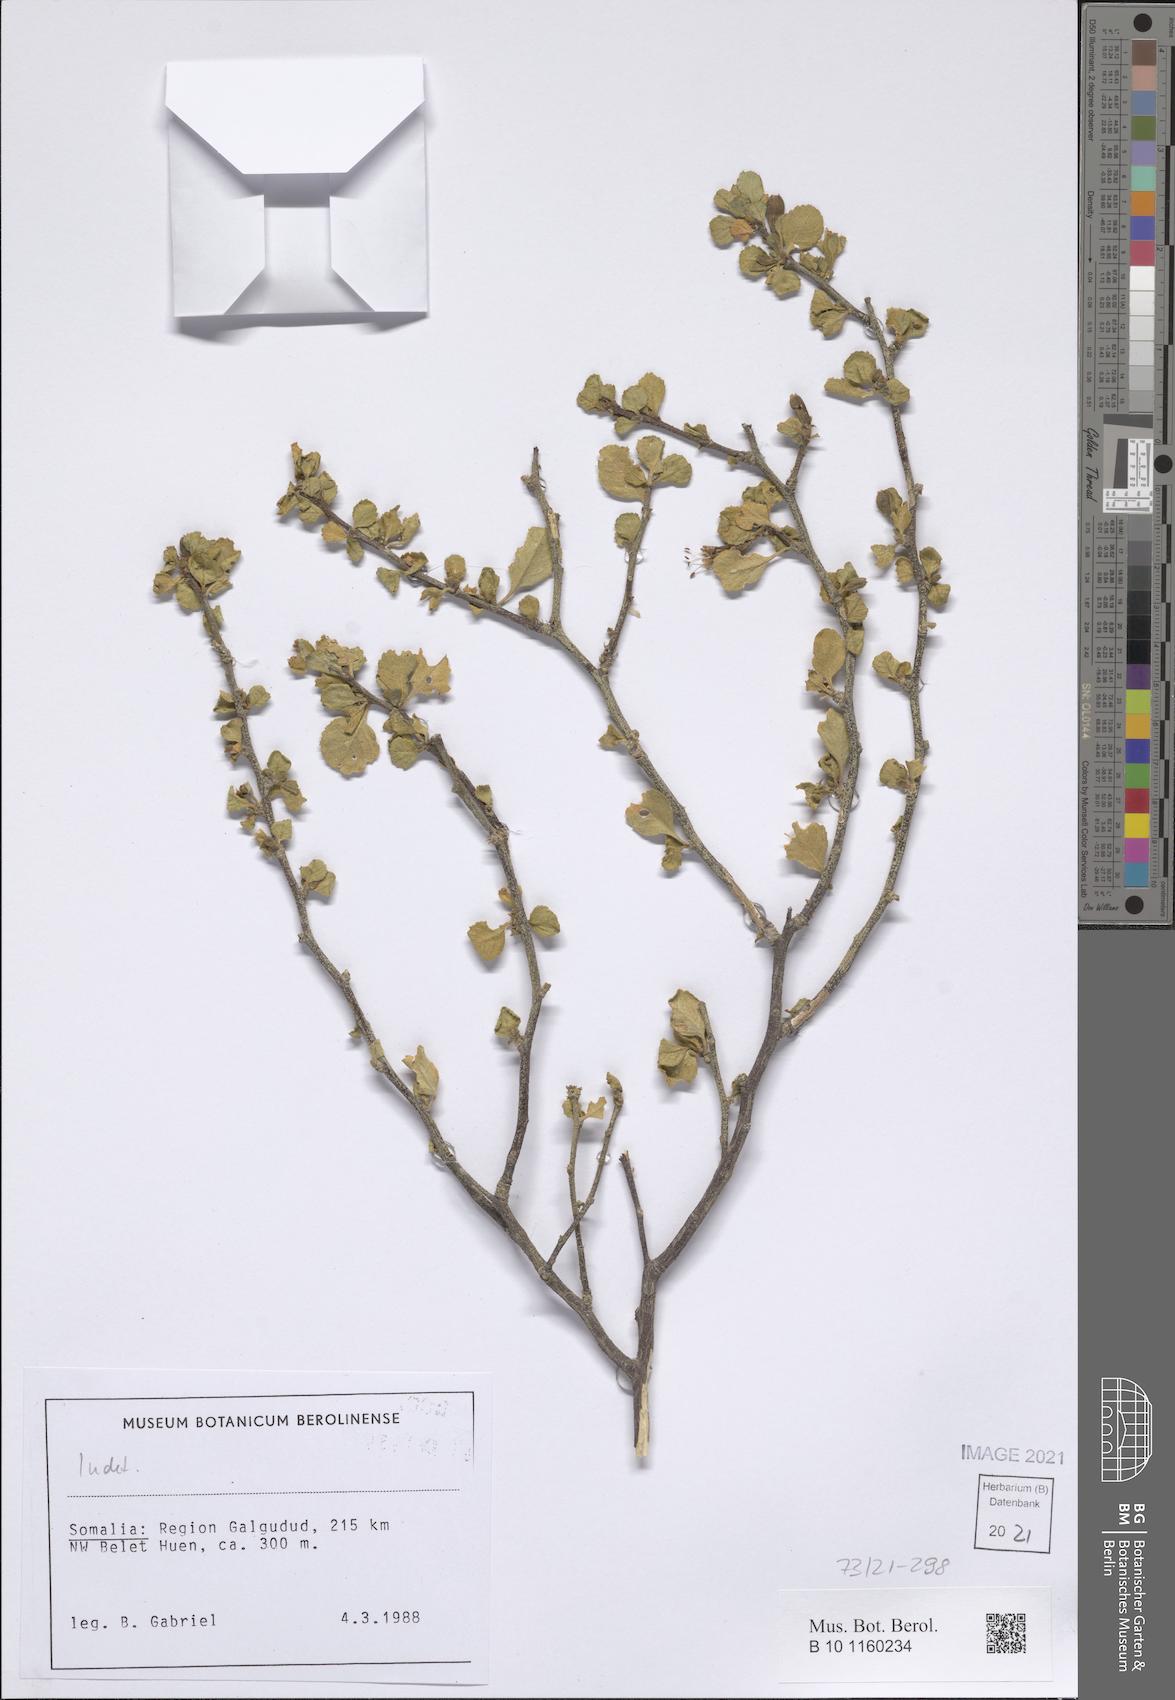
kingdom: Plantae
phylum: Tracheophyta
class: Magnoliopsida
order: Malpighiales
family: Turneraceae
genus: Loewia
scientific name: Loewia glutinosa
